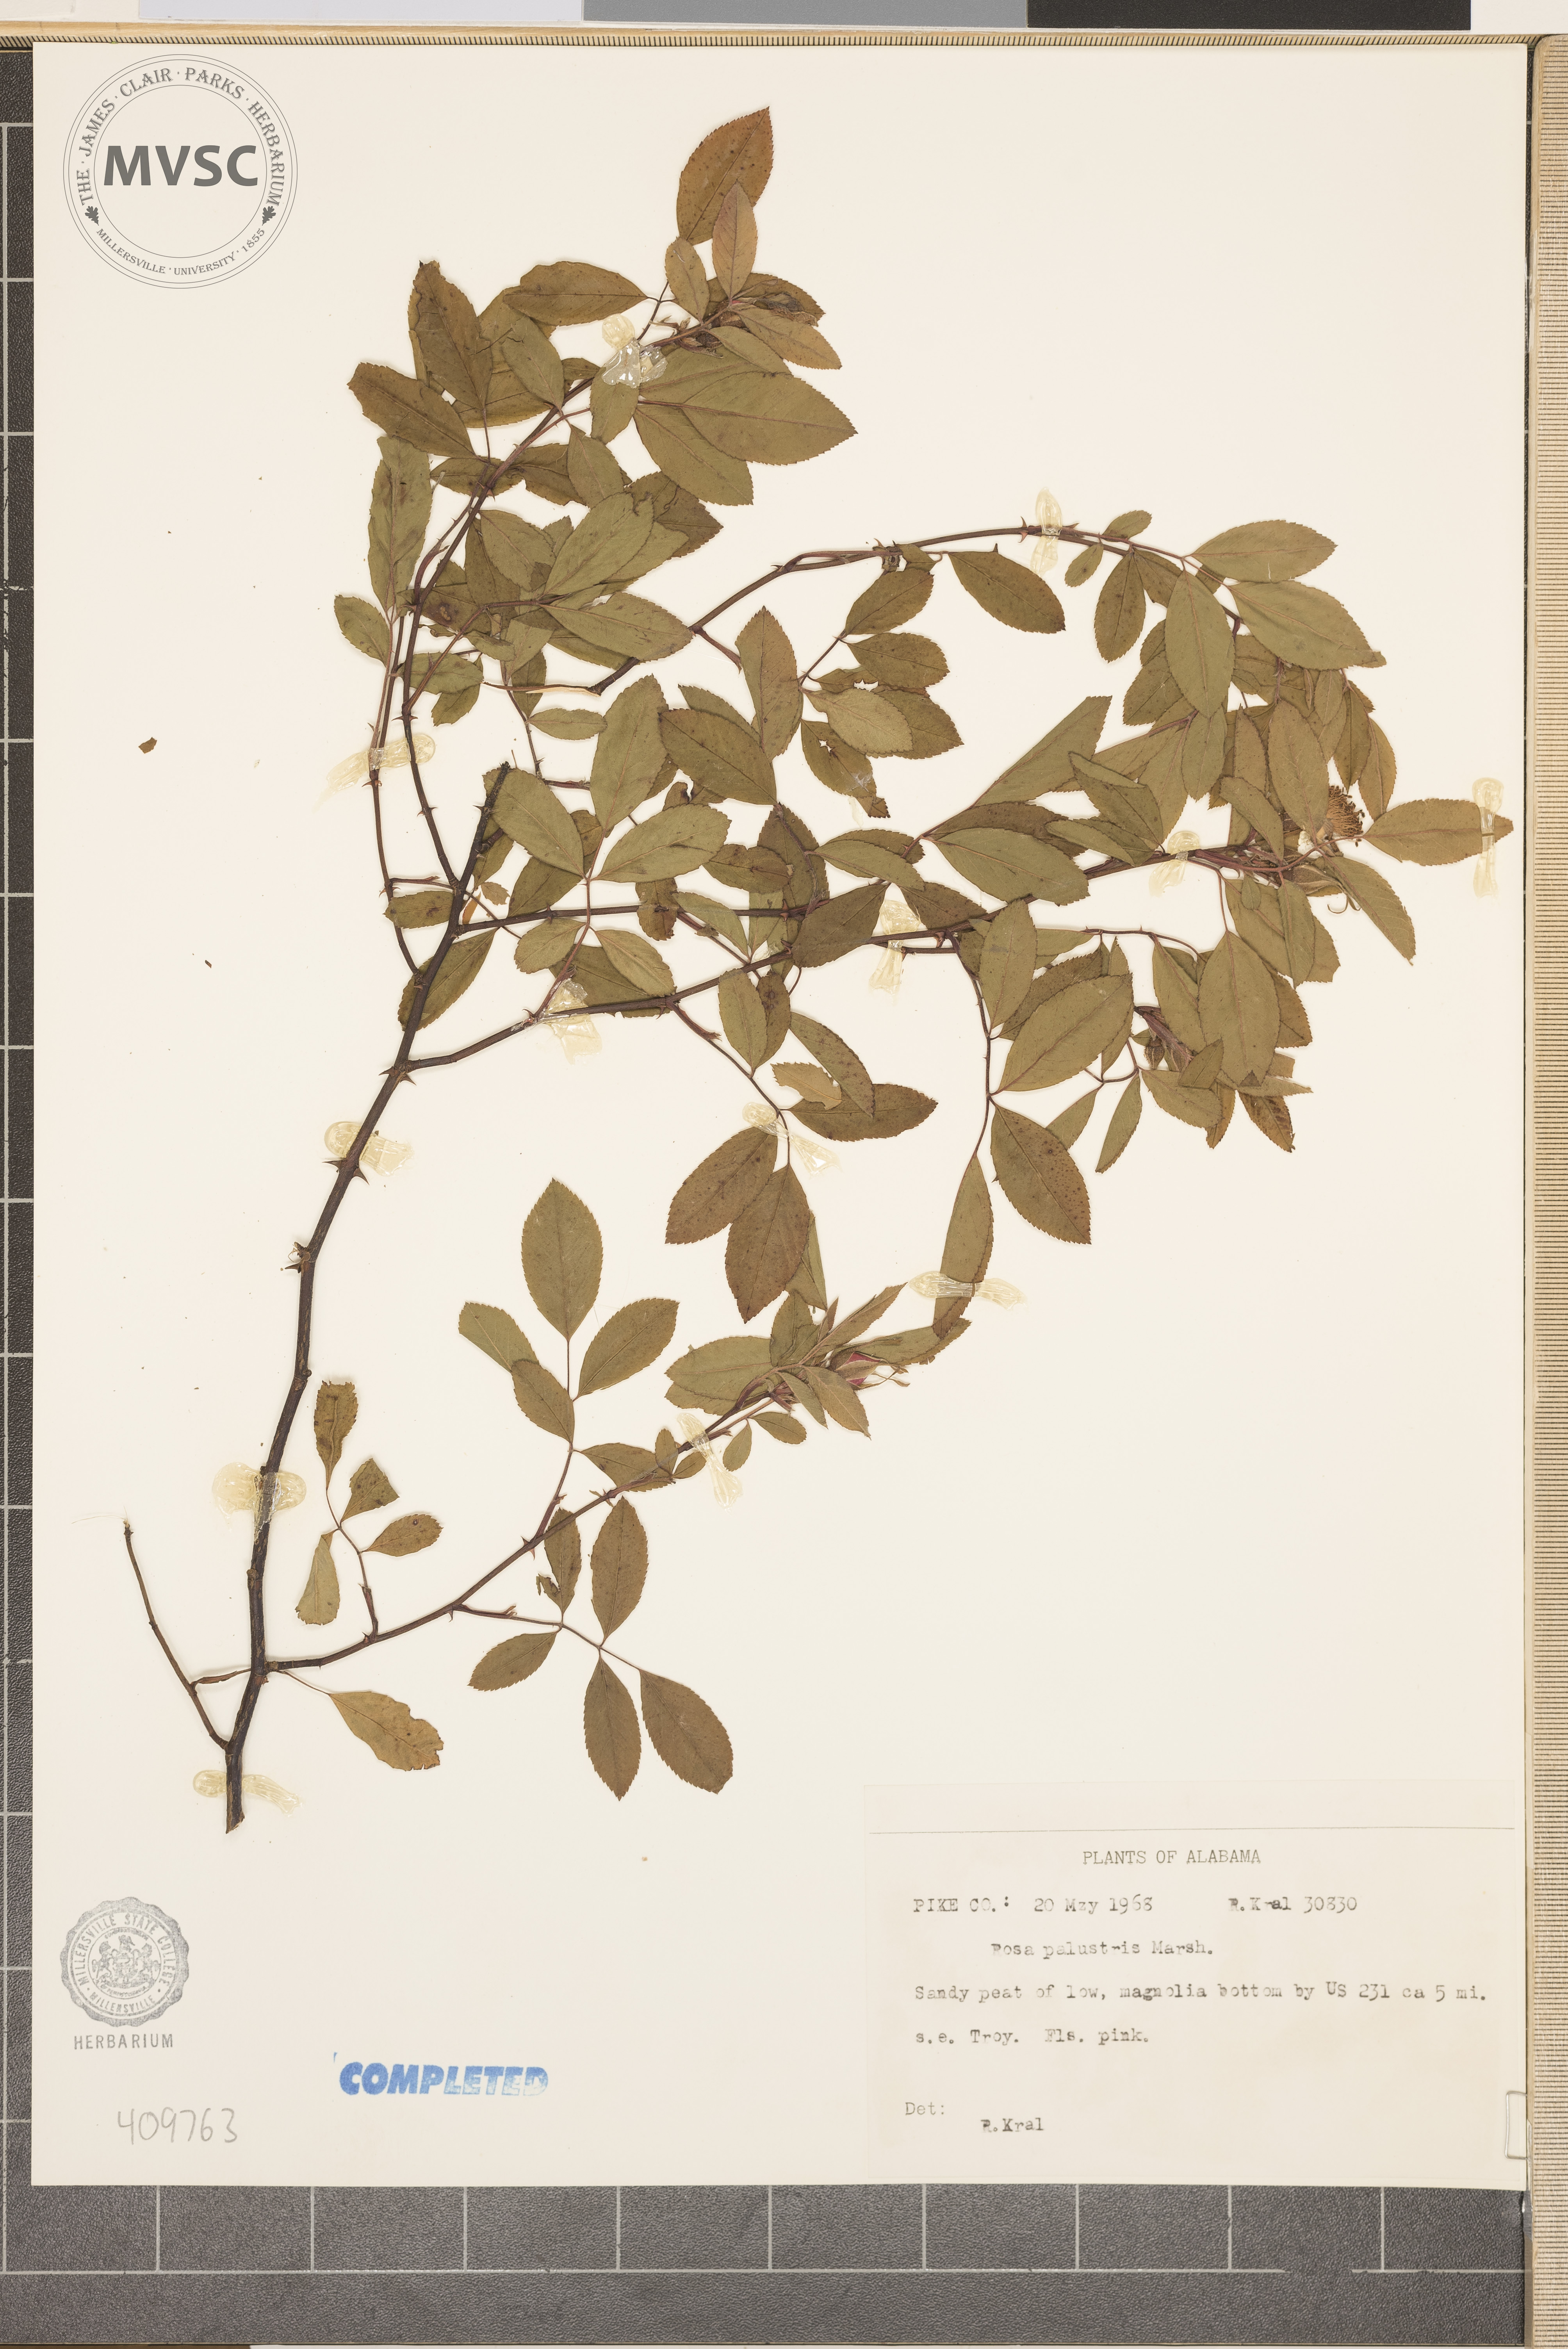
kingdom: Plantae
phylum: Tracheophyta
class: Magnoliopsida
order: Rosales
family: Rosaceae
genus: Rosa
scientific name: Rosa palustris
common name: Swamp rose
